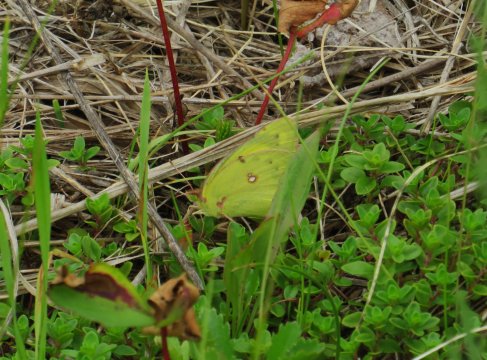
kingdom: Animalia
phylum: Arthropoda
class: Insecta
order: Lepidoptera
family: Pieridae
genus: Colias
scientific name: Colias philodice
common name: Clouded Sulphur
